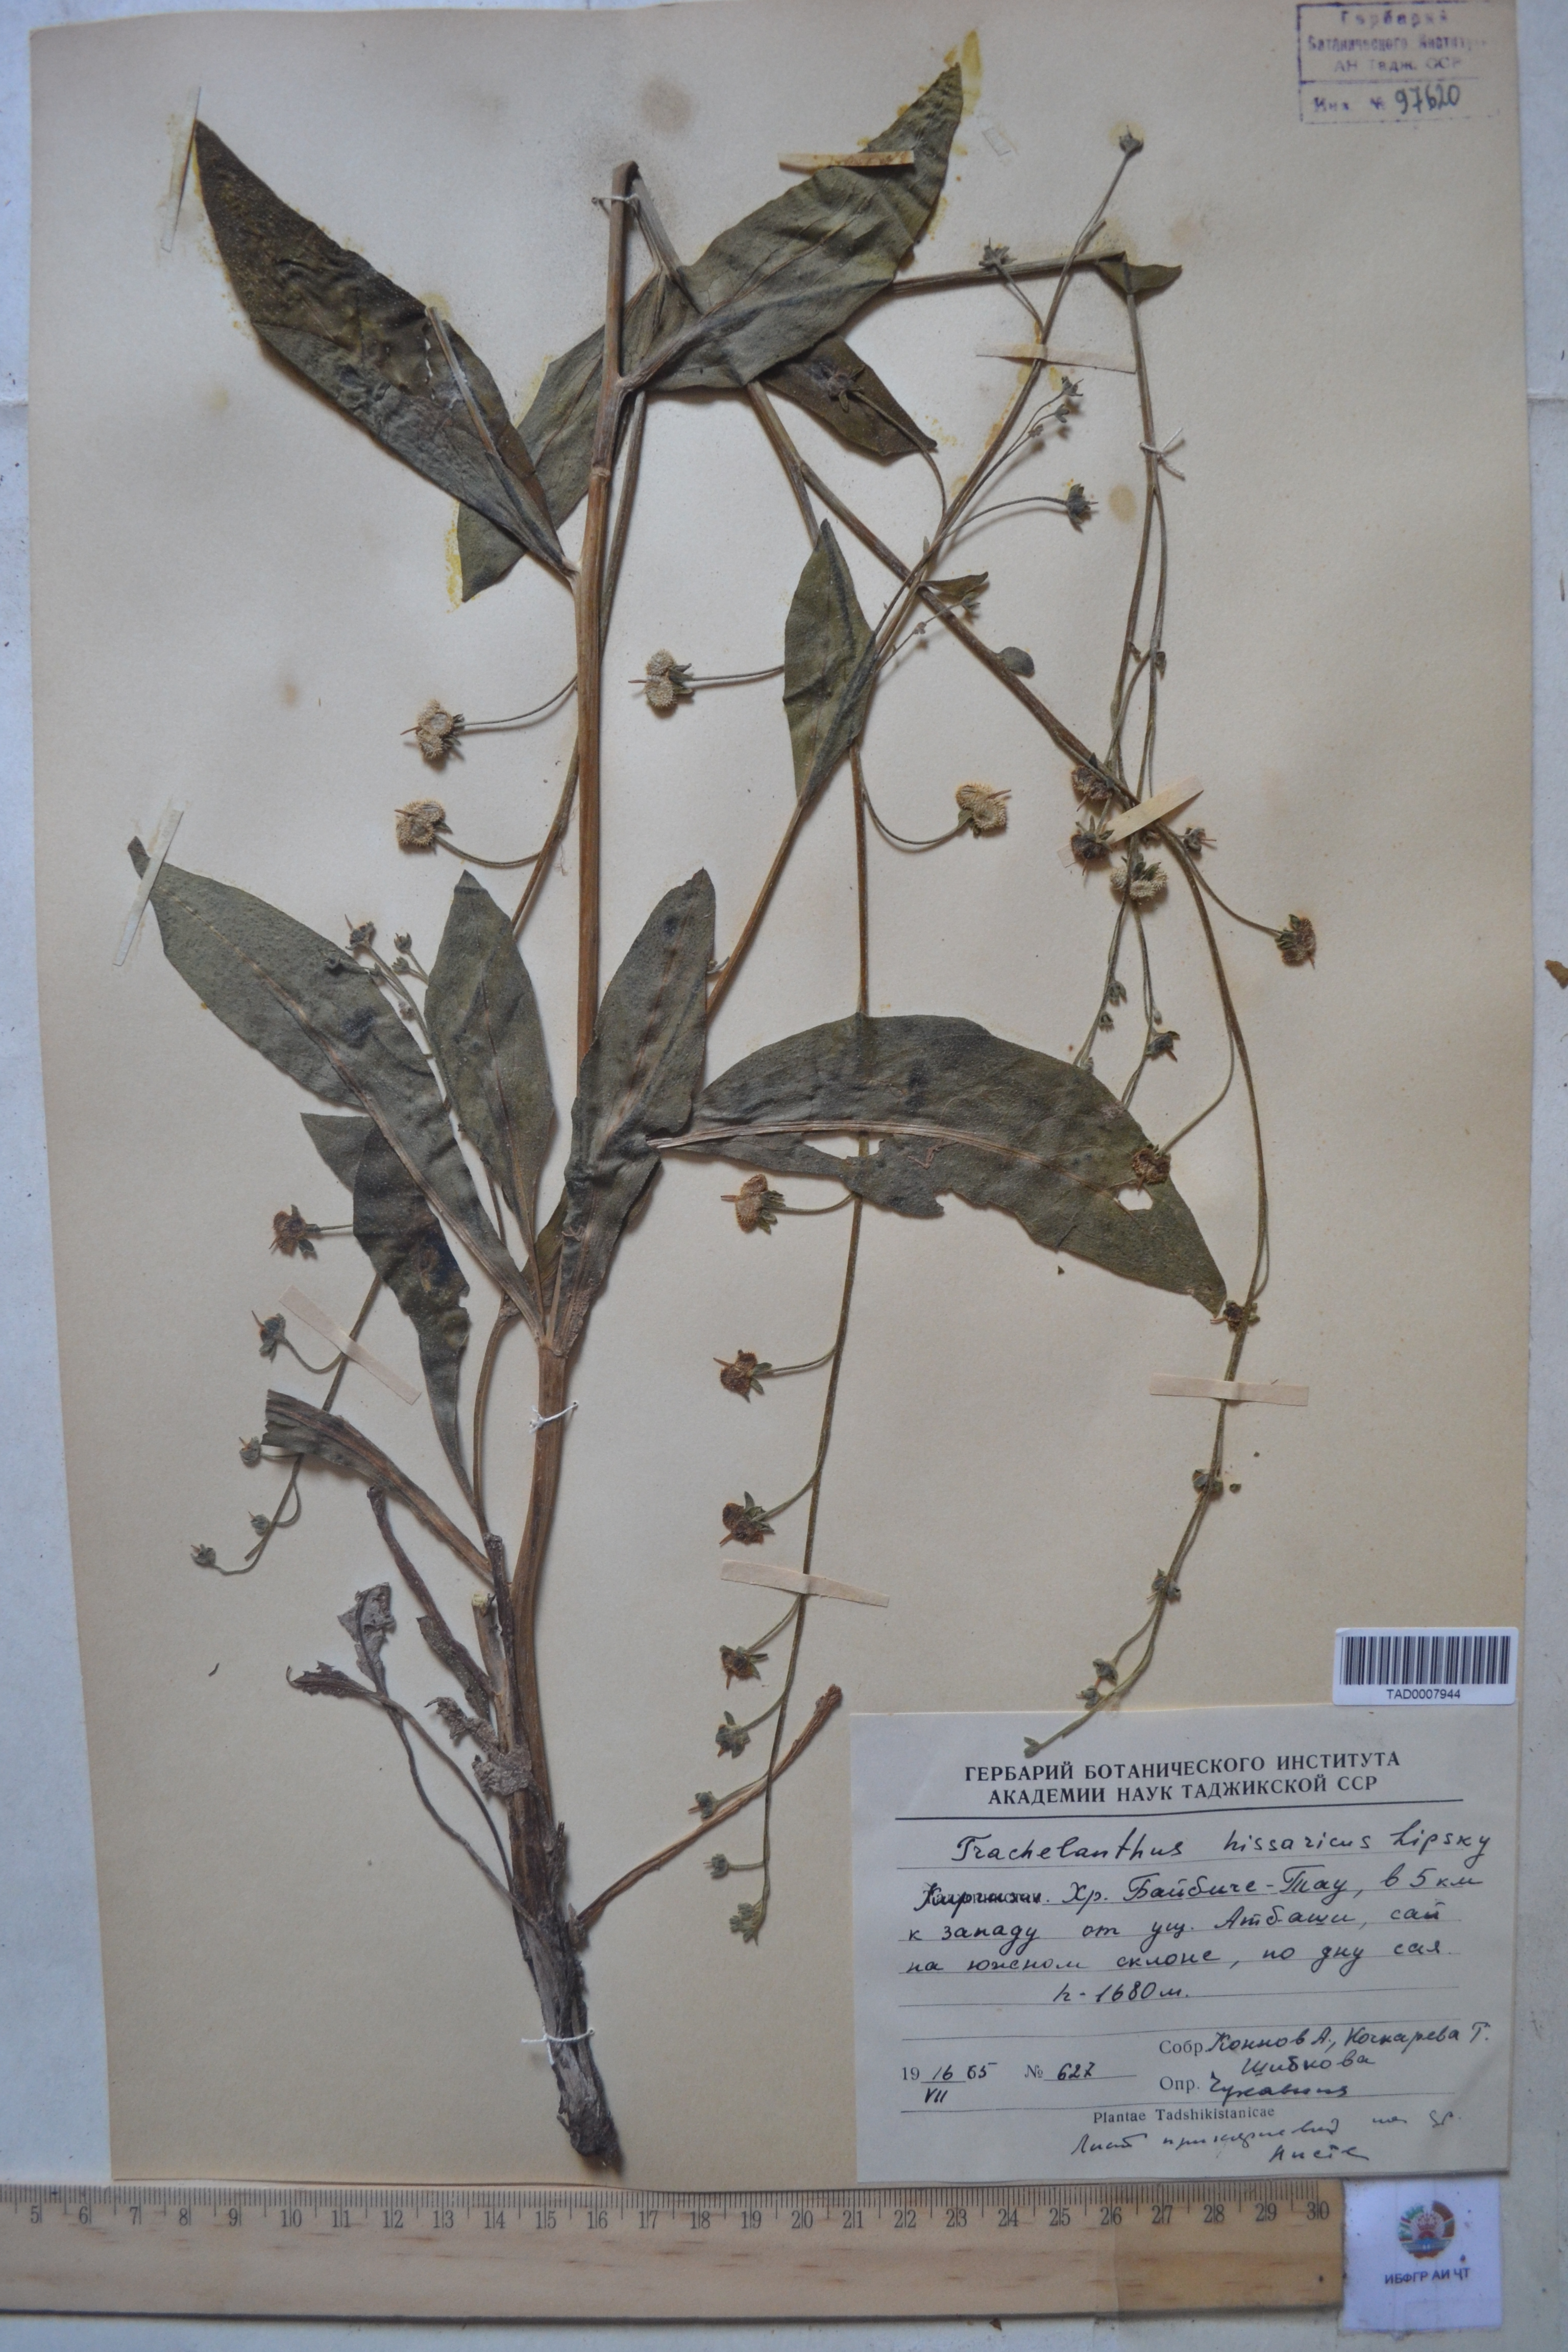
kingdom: Plantae
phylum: Tracheophyta
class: Magnoliopsida
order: Boraginales
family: Boraginaceae
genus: Lindelofia
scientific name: Lindelofia hissarica
